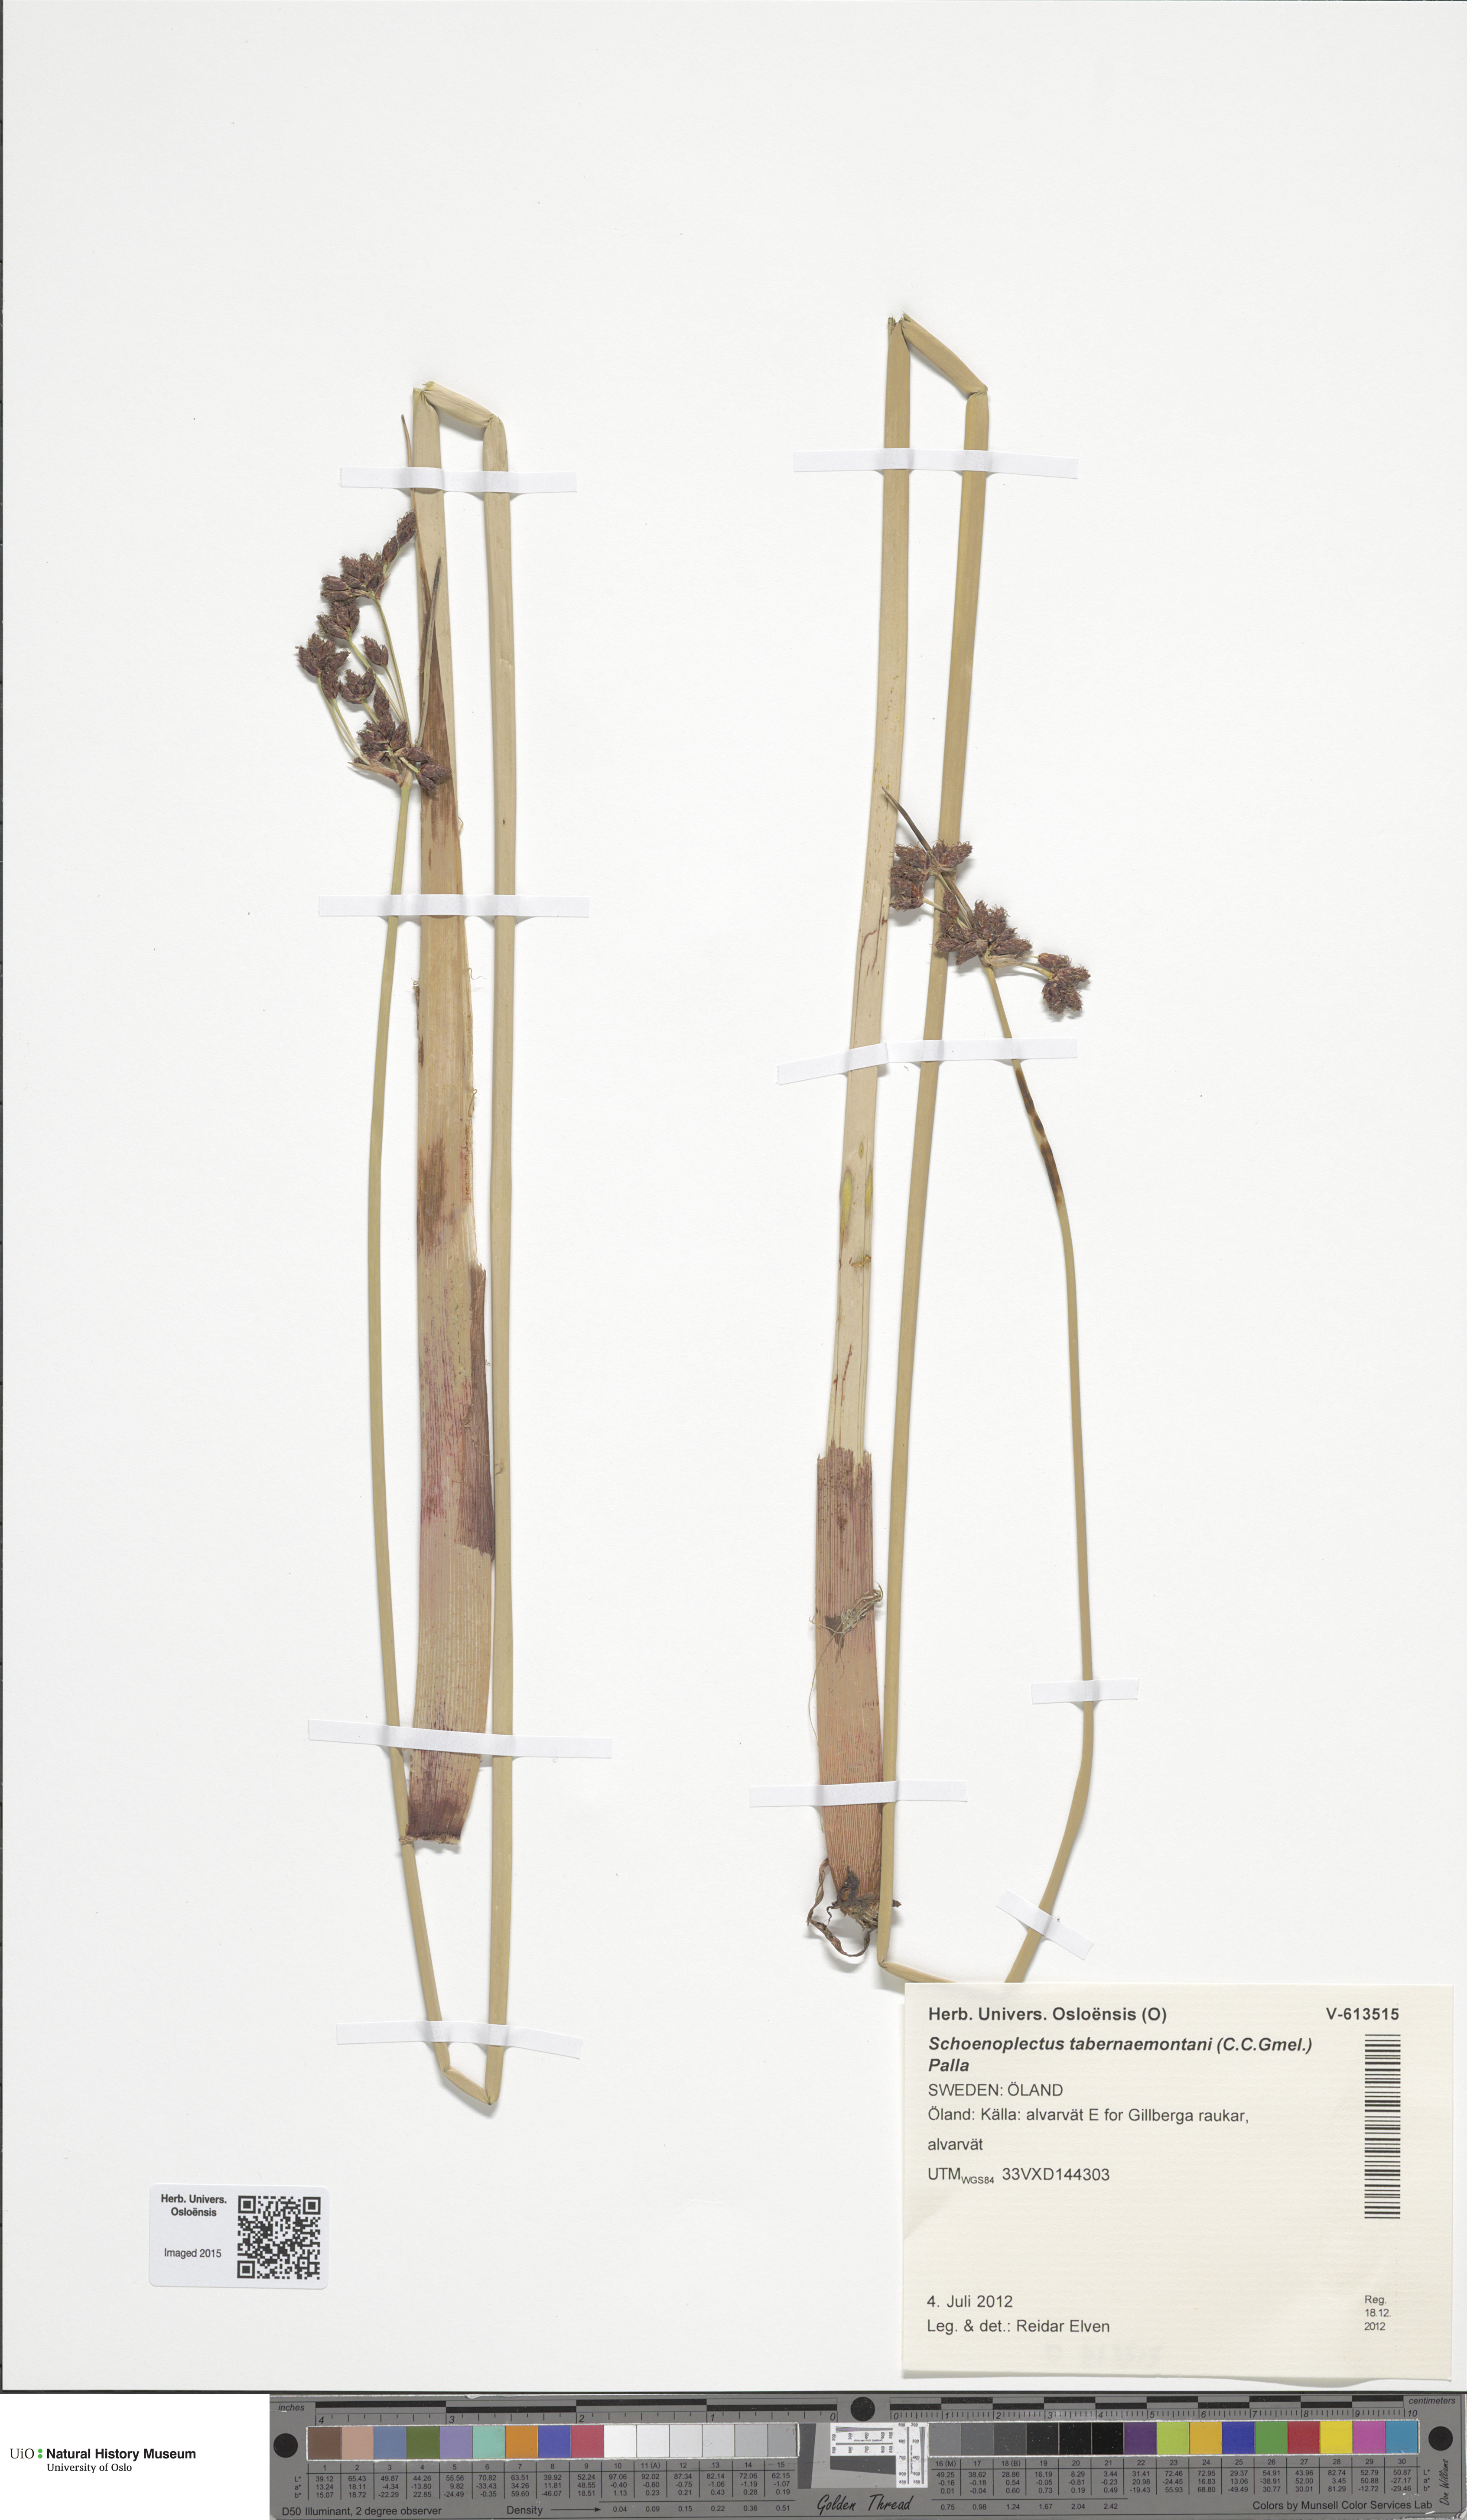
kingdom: Plantae
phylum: Tracheophyta
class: Liliopsida
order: Poales
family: Cyperaceae
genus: Schoenoplectus
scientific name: Schoenoplectus tabernaemontani
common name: Grey club-rush
